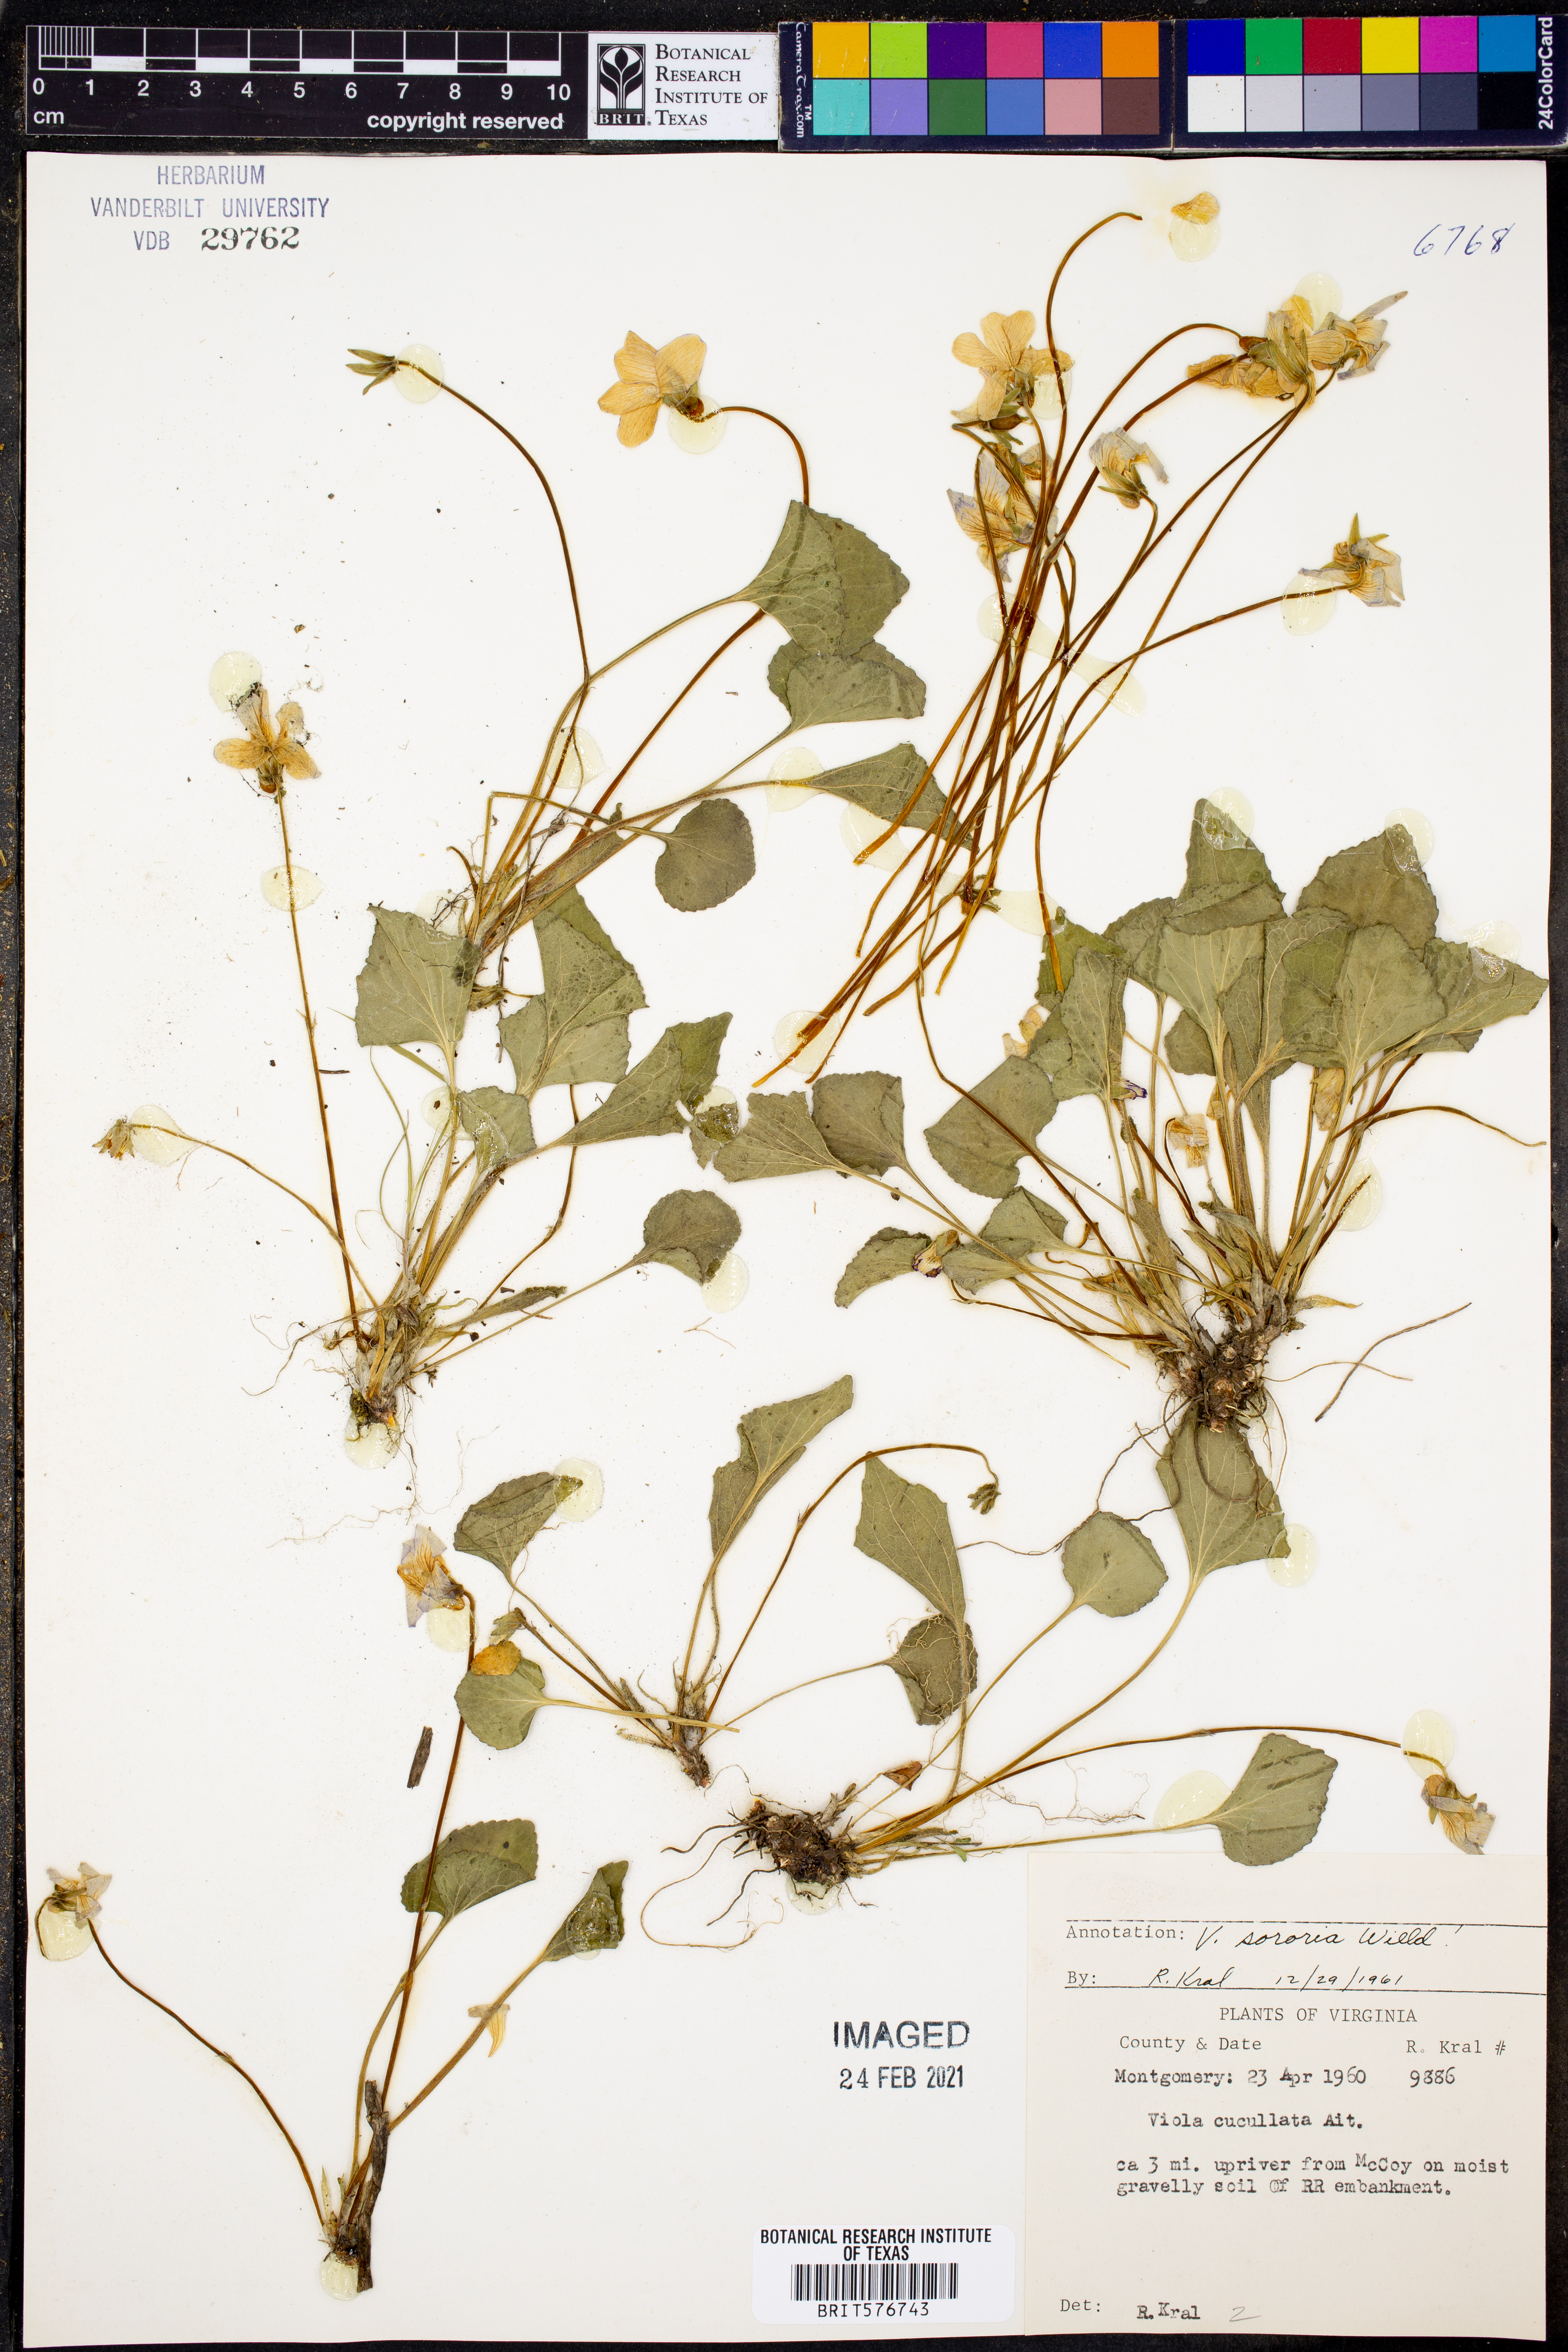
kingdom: Plantae
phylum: Tracheophyta
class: Magnoliopsida
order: Malpighiales
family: Violaceae
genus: Viola
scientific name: Viola sororia
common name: Dooryard violet
